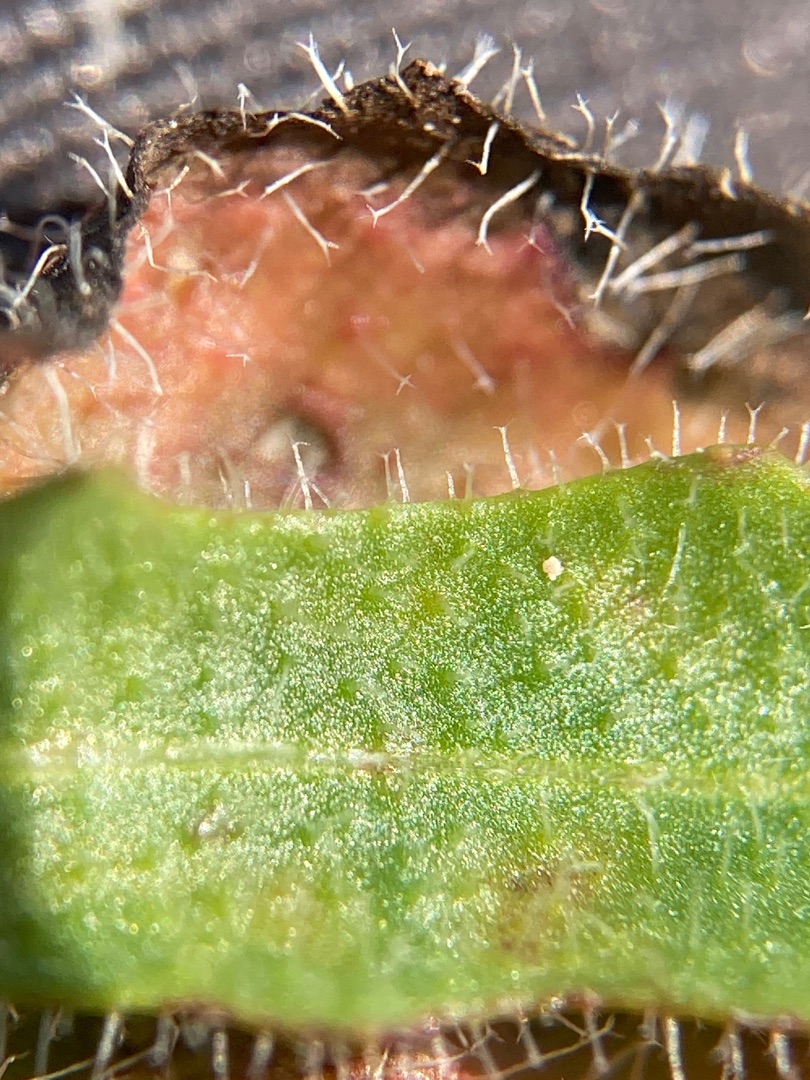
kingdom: Plantae
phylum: Tracheophyta
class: Magnoliopsida
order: Asterales
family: Asteraceae
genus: Thrincia
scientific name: Thrincia saxatilis
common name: Hundesalat
